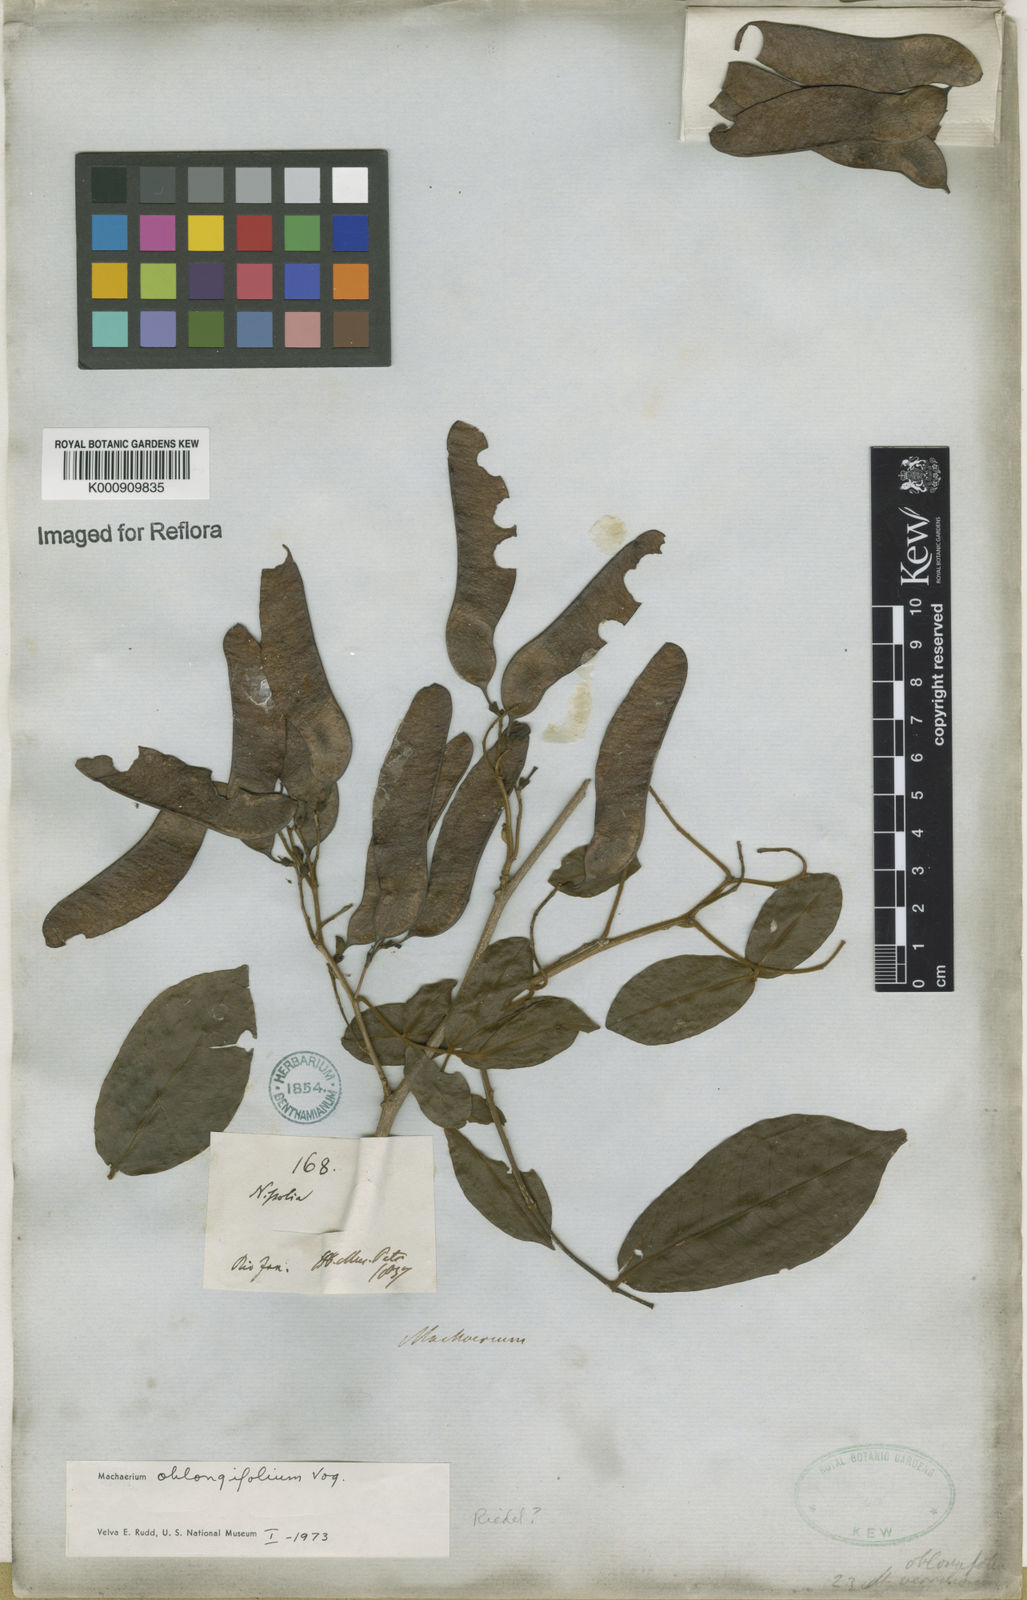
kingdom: Plantae
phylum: Tracheophyta
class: Magnoliopsida
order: Fabales
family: Fabaceae
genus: Machaerium
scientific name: Machaerium oblongifolium
